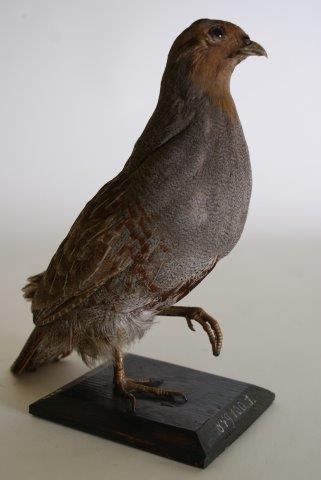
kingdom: Animalia
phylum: Chordata
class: Aves
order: Galliformes
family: Phasianidae
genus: Perdix
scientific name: Perdix perdix
